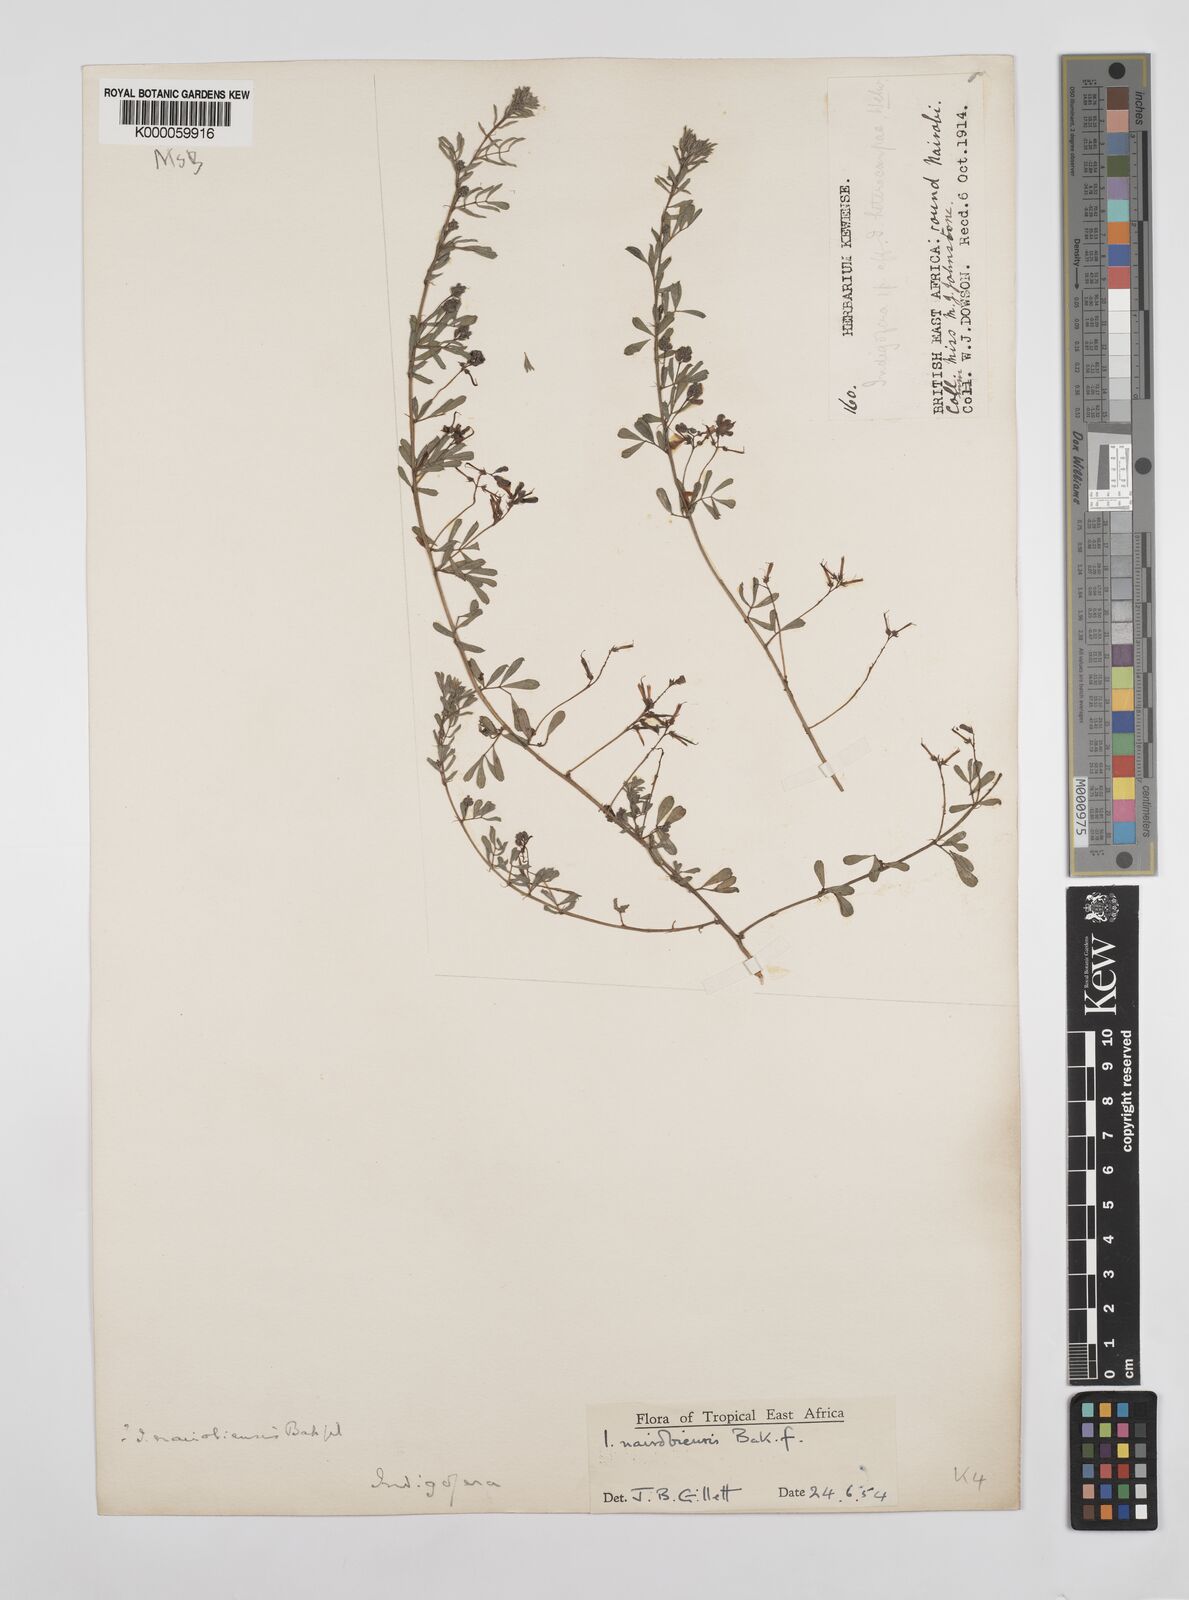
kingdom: Plantae
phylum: Tracheophyta
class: Magnoliopsida
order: Fabales
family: Fabaceae
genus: Indigofera
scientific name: Indigofera nairobiensis
